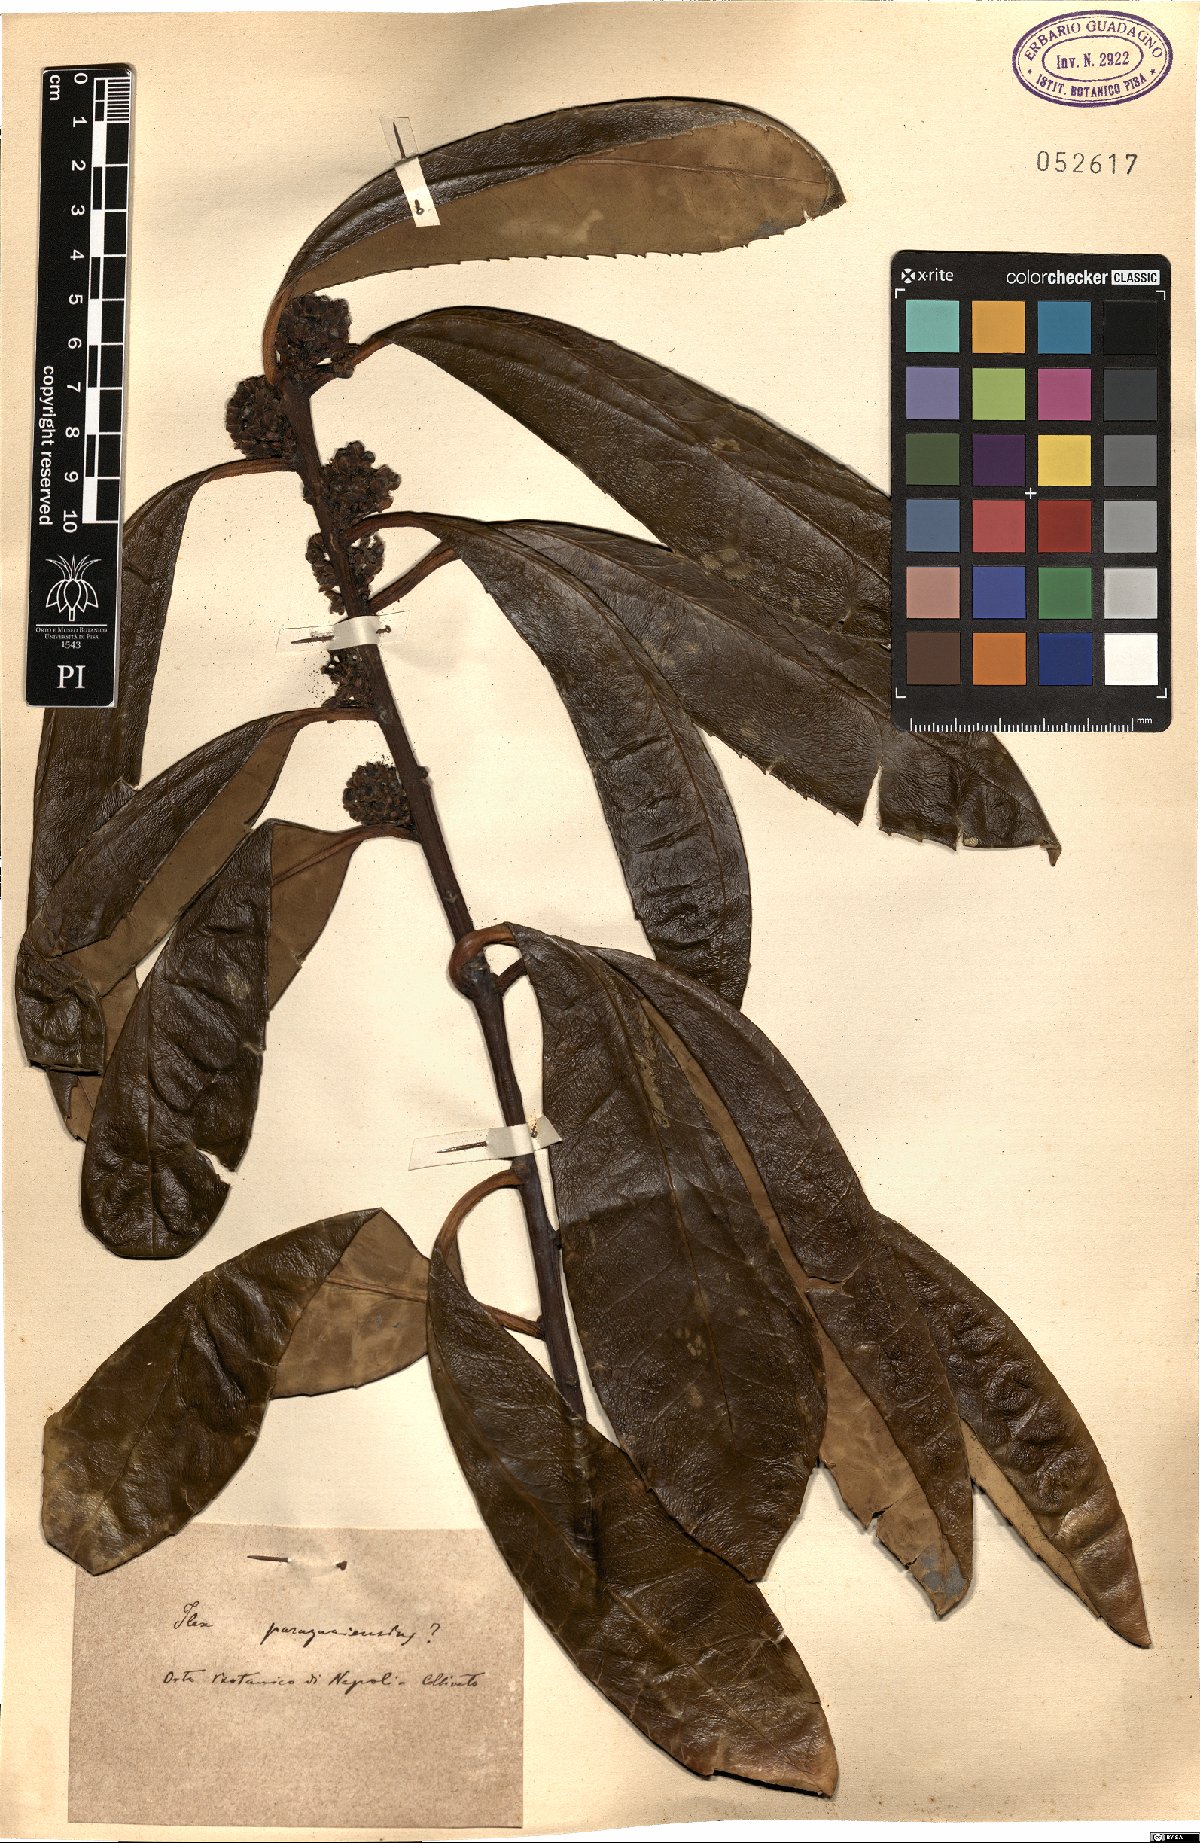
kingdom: Plantae
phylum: Tracheophyta
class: Magnoliopsida
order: Aquifoliales
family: Aquifoliaceae
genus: Ilex
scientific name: Ilex paraguariensis
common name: Paraguay tea
